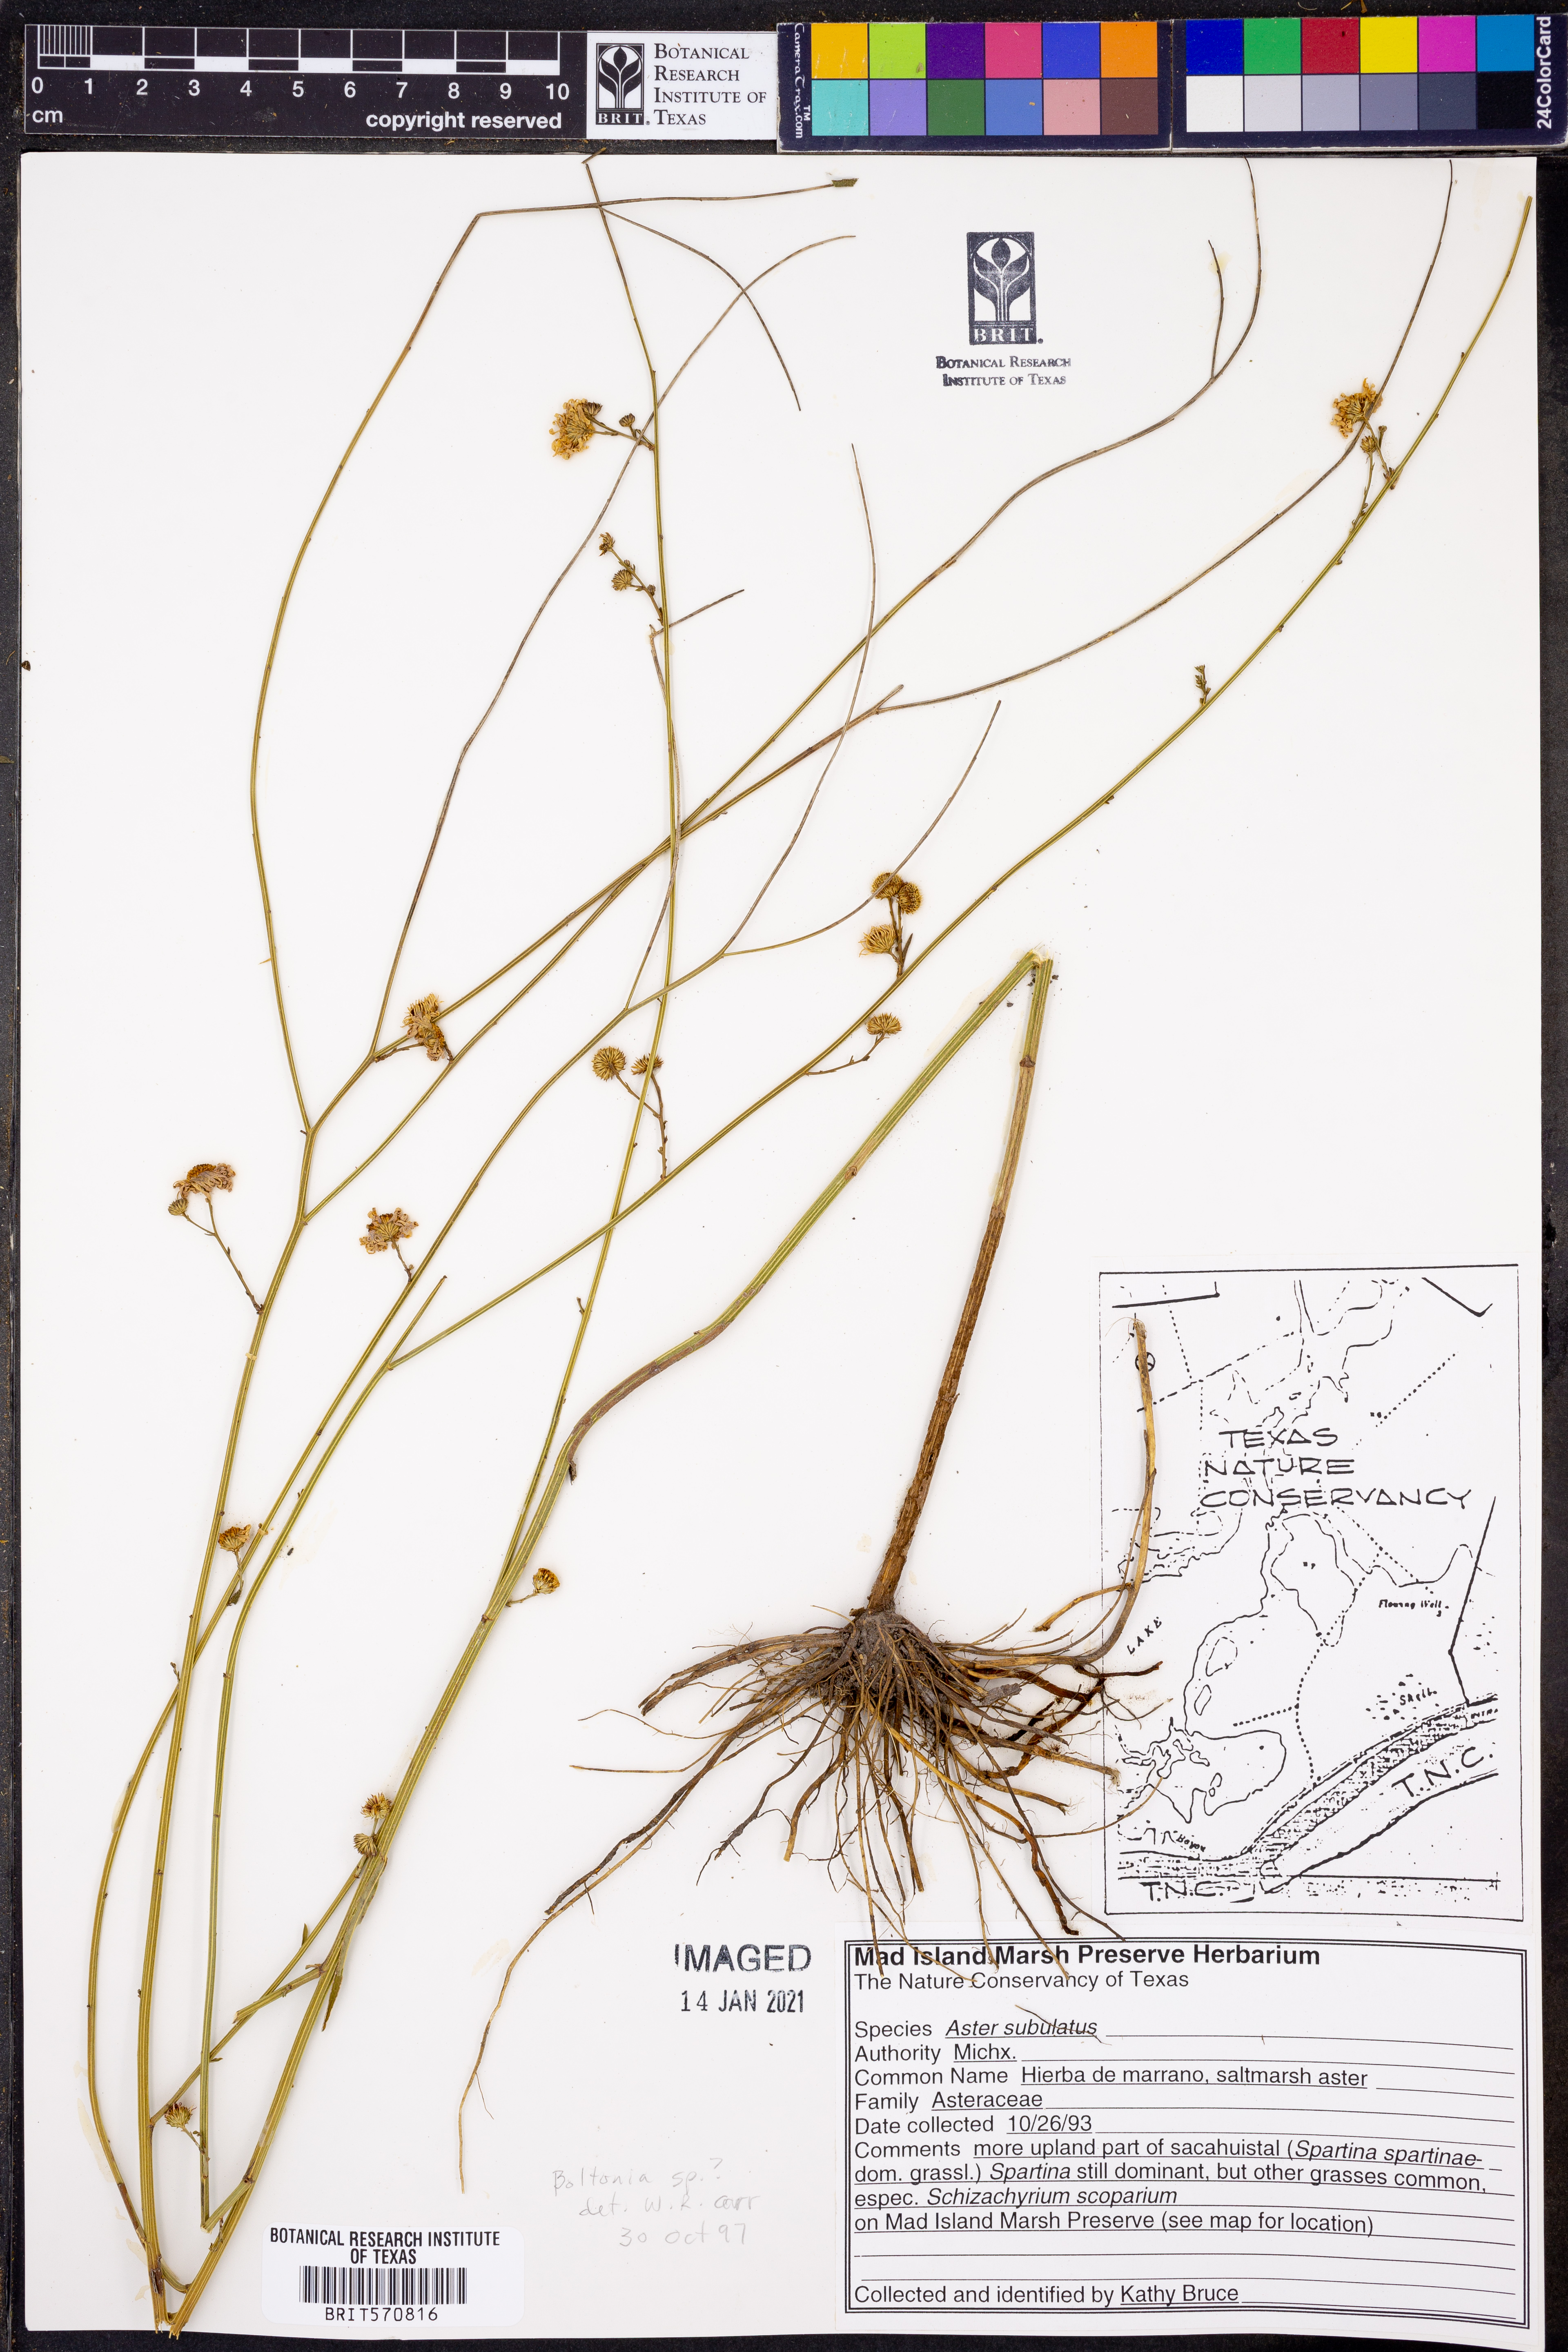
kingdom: Plantae
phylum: Tracheophyta
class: Magnoliopsida
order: Asterales
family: Asteraceae
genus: Symphyotrichum
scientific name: Symphyotrichum subulatum
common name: Annual saltmarsh aster
